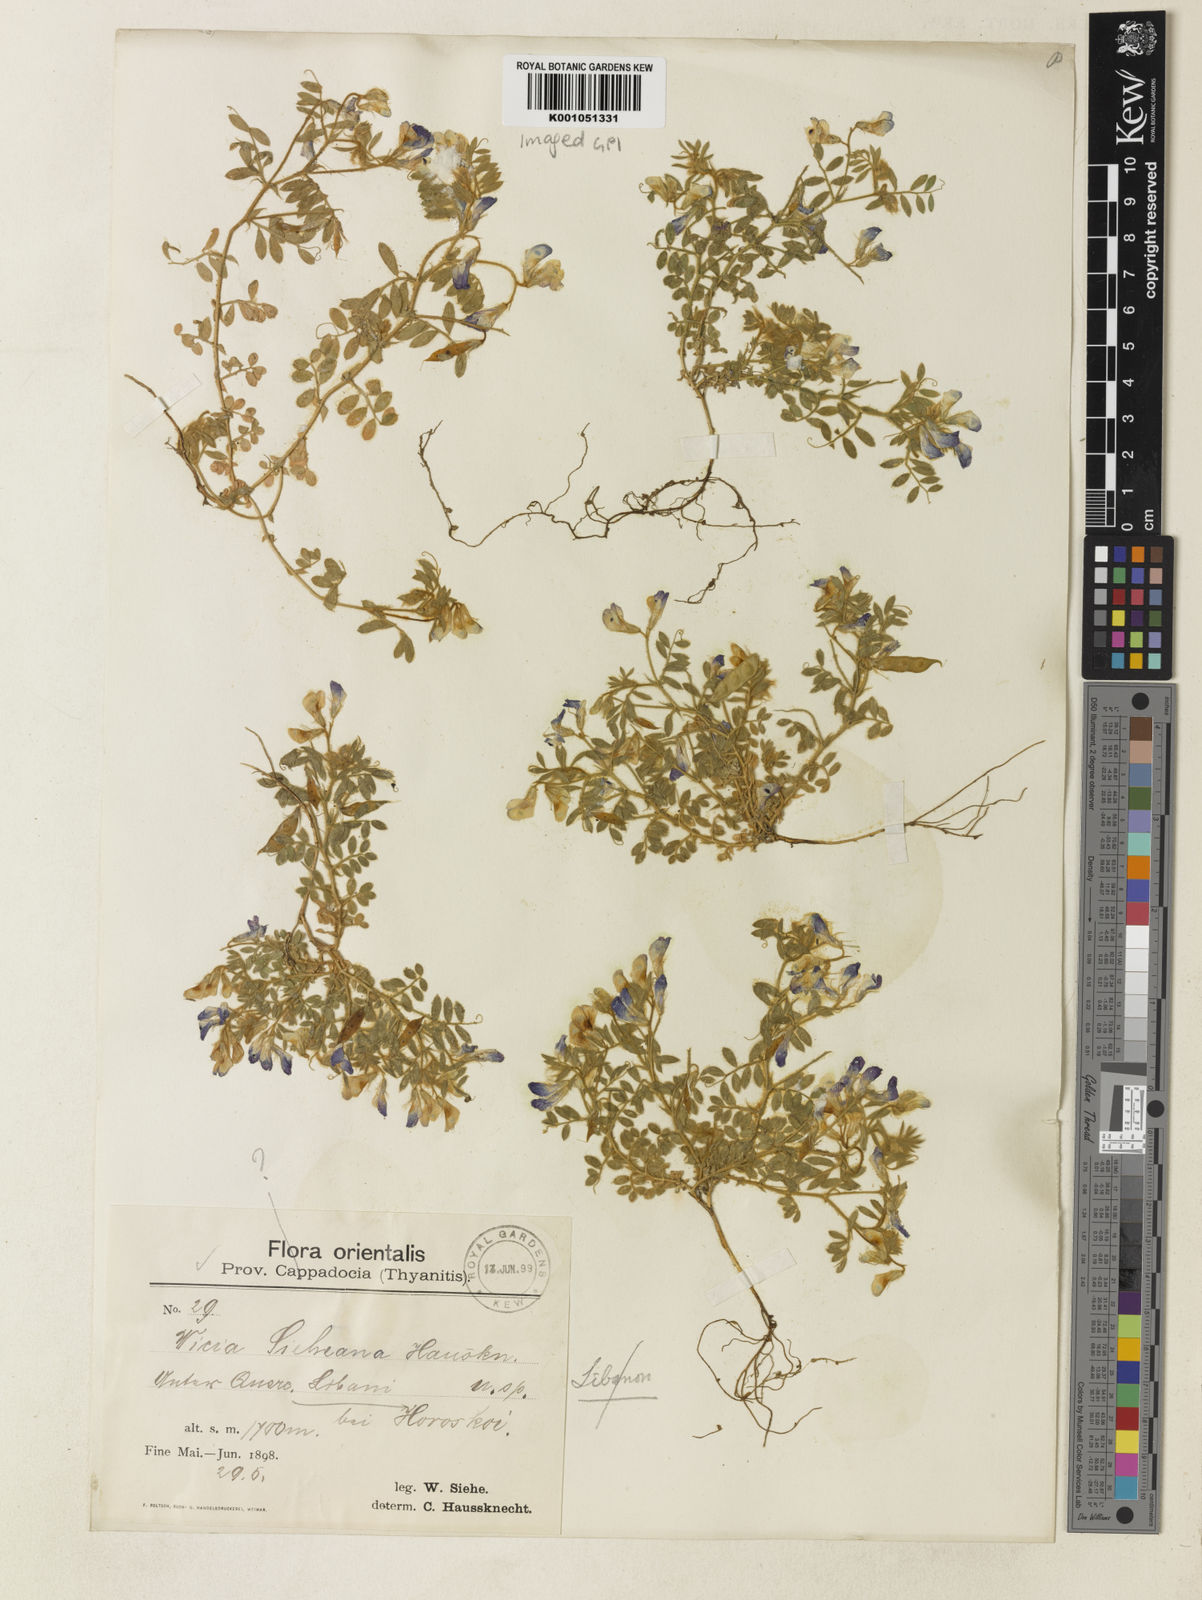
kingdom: Plantae
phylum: Tracheophyta
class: Magnoliopsida
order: Fabales
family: Fabaceae
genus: Vicia
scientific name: Vicia
